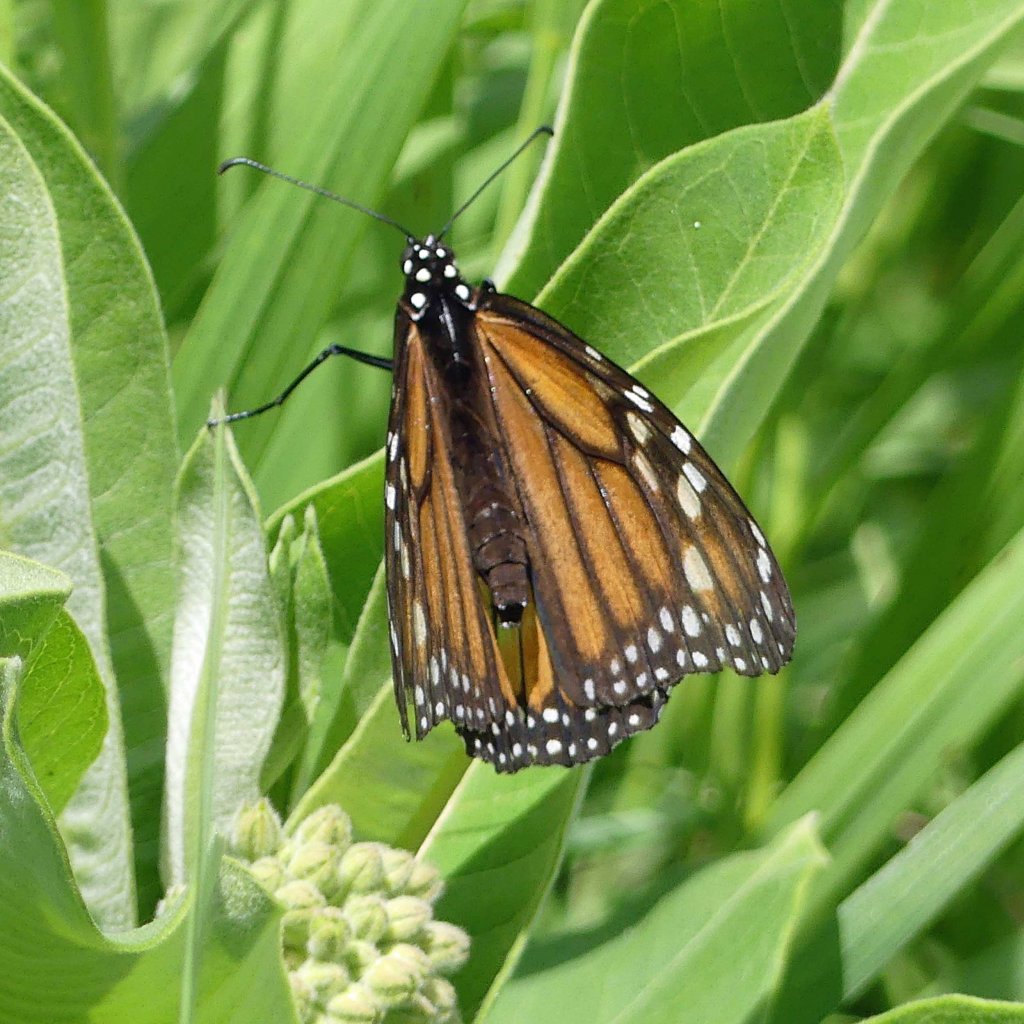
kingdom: Animalia
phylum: Arthropoda
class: Insecta
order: Lepidoptera
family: Nymphalidae
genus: Danaus
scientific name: Danaus plexippus
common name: Monarch
